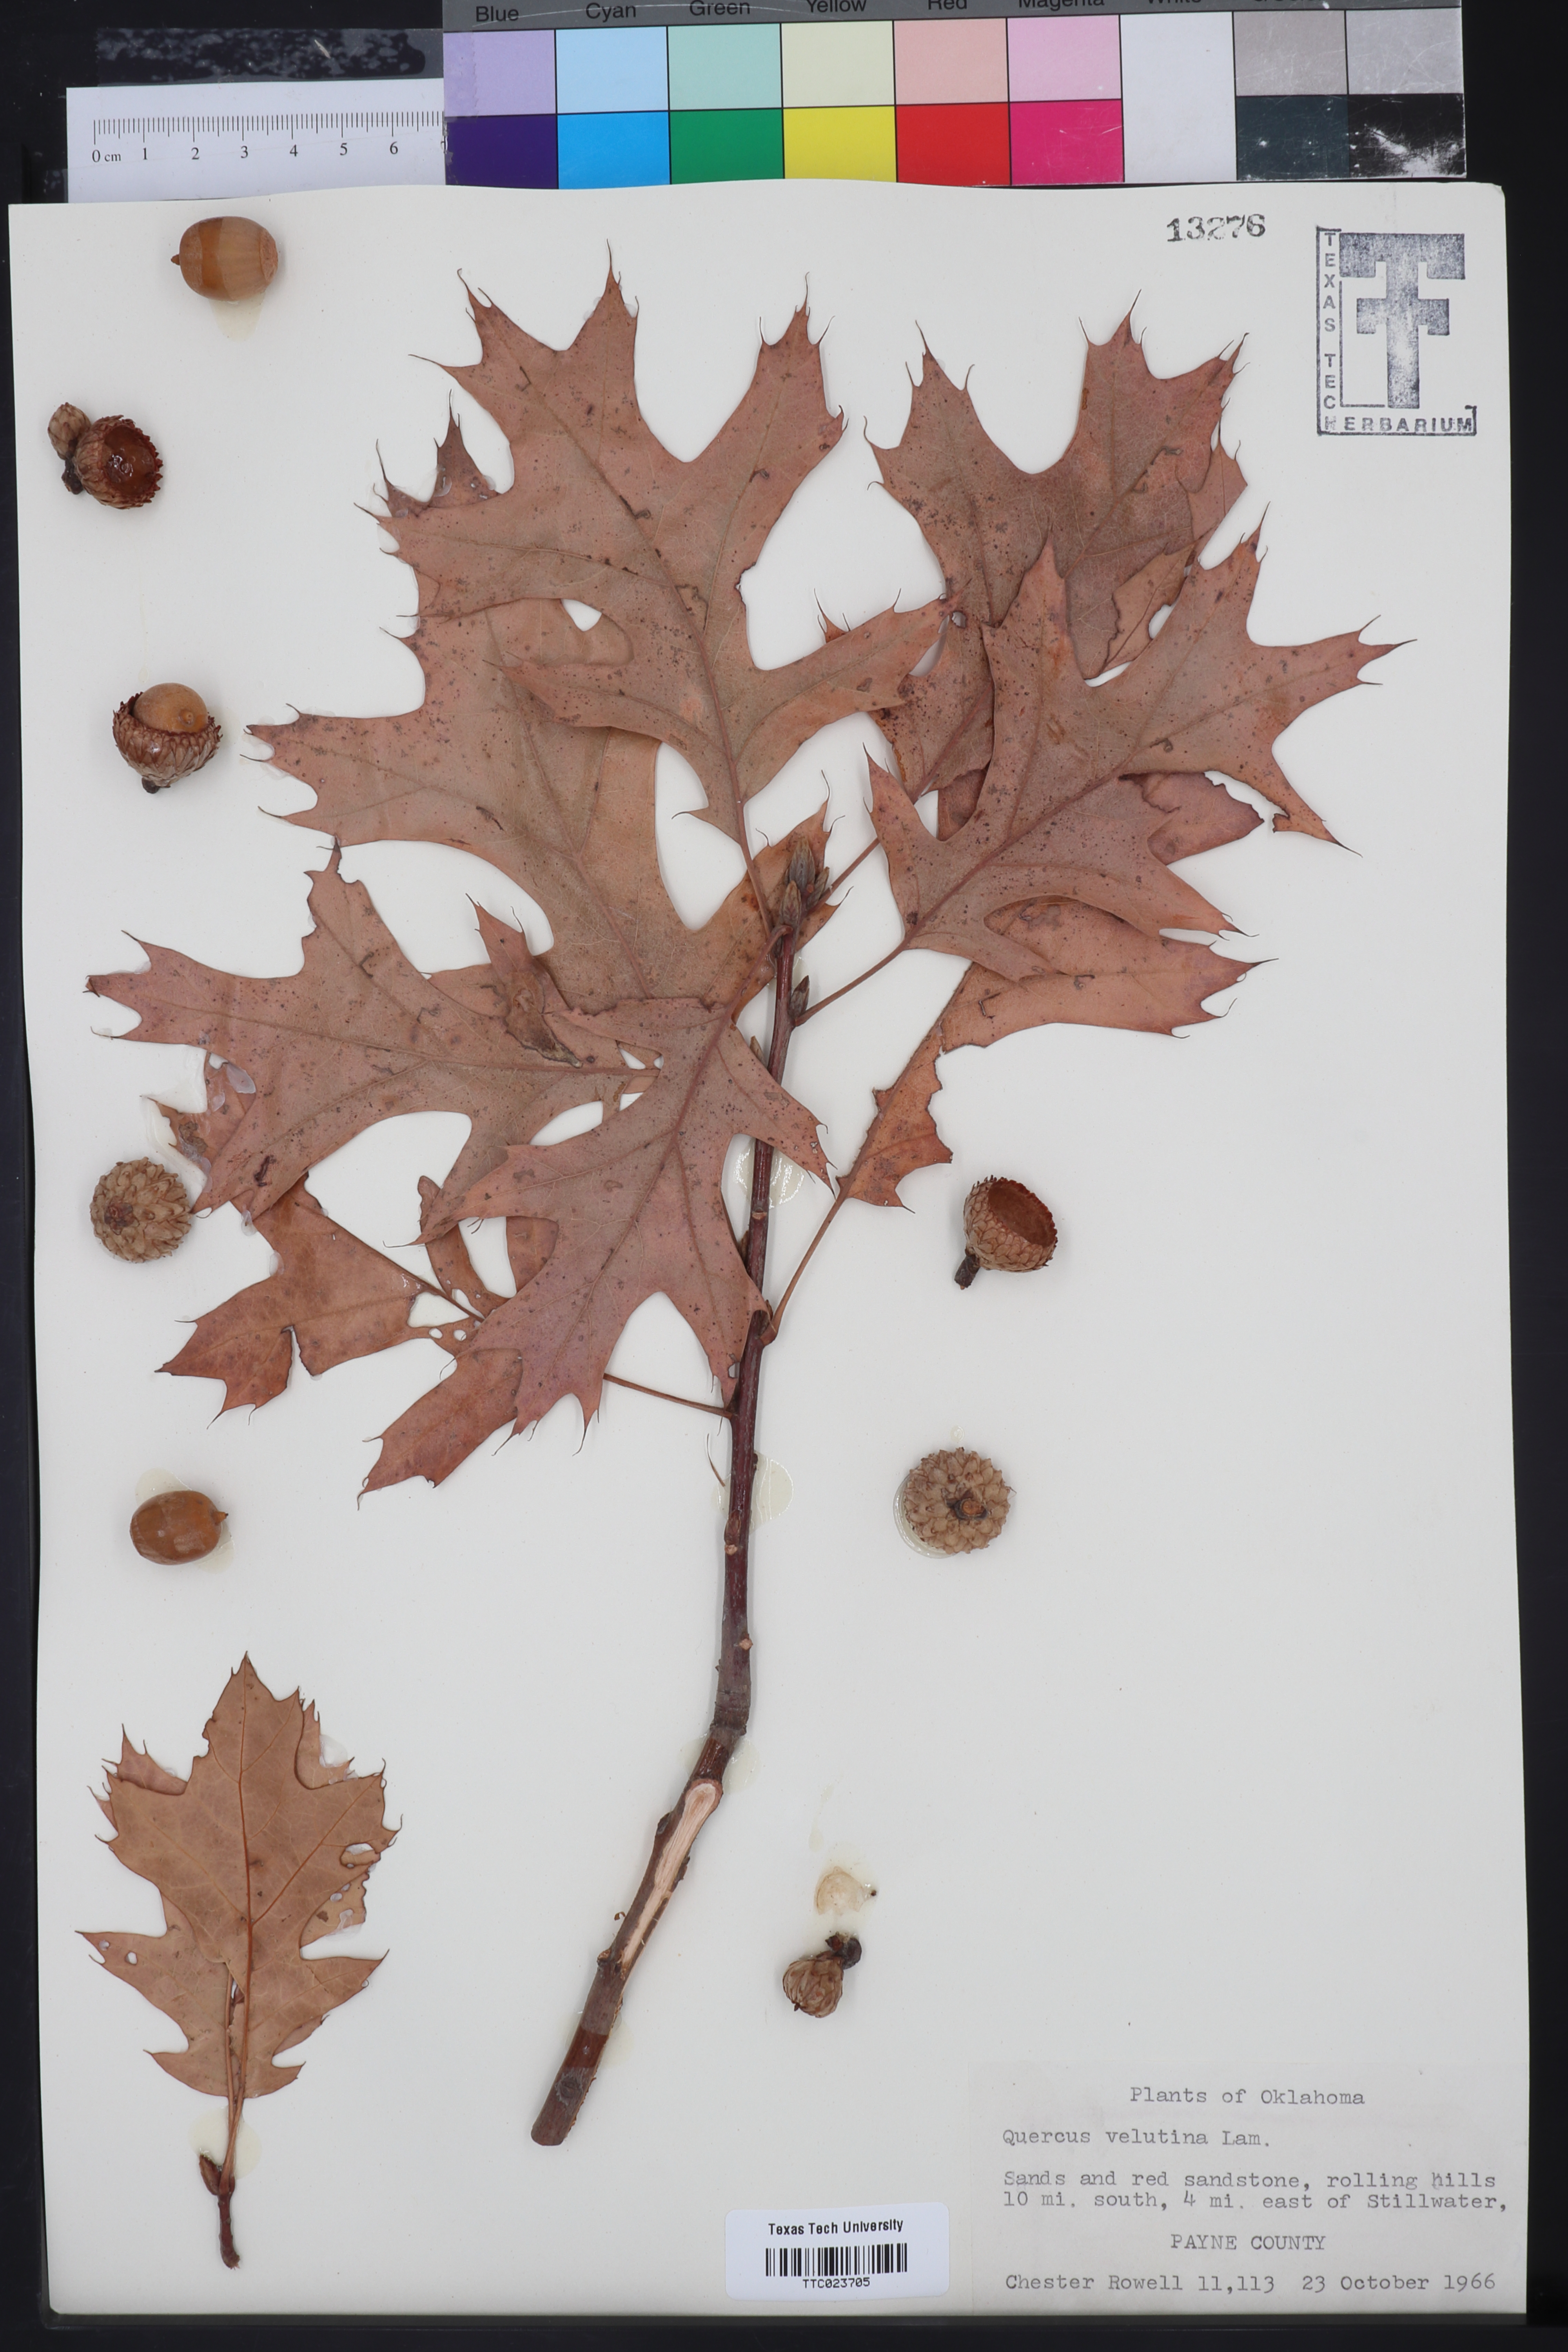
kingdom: Plantae
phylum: Tracheophyta
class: Magnoliopsida
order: Fagales
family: Fagaceae
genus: Quercus
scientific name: Quercus velutina
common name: Black oak
